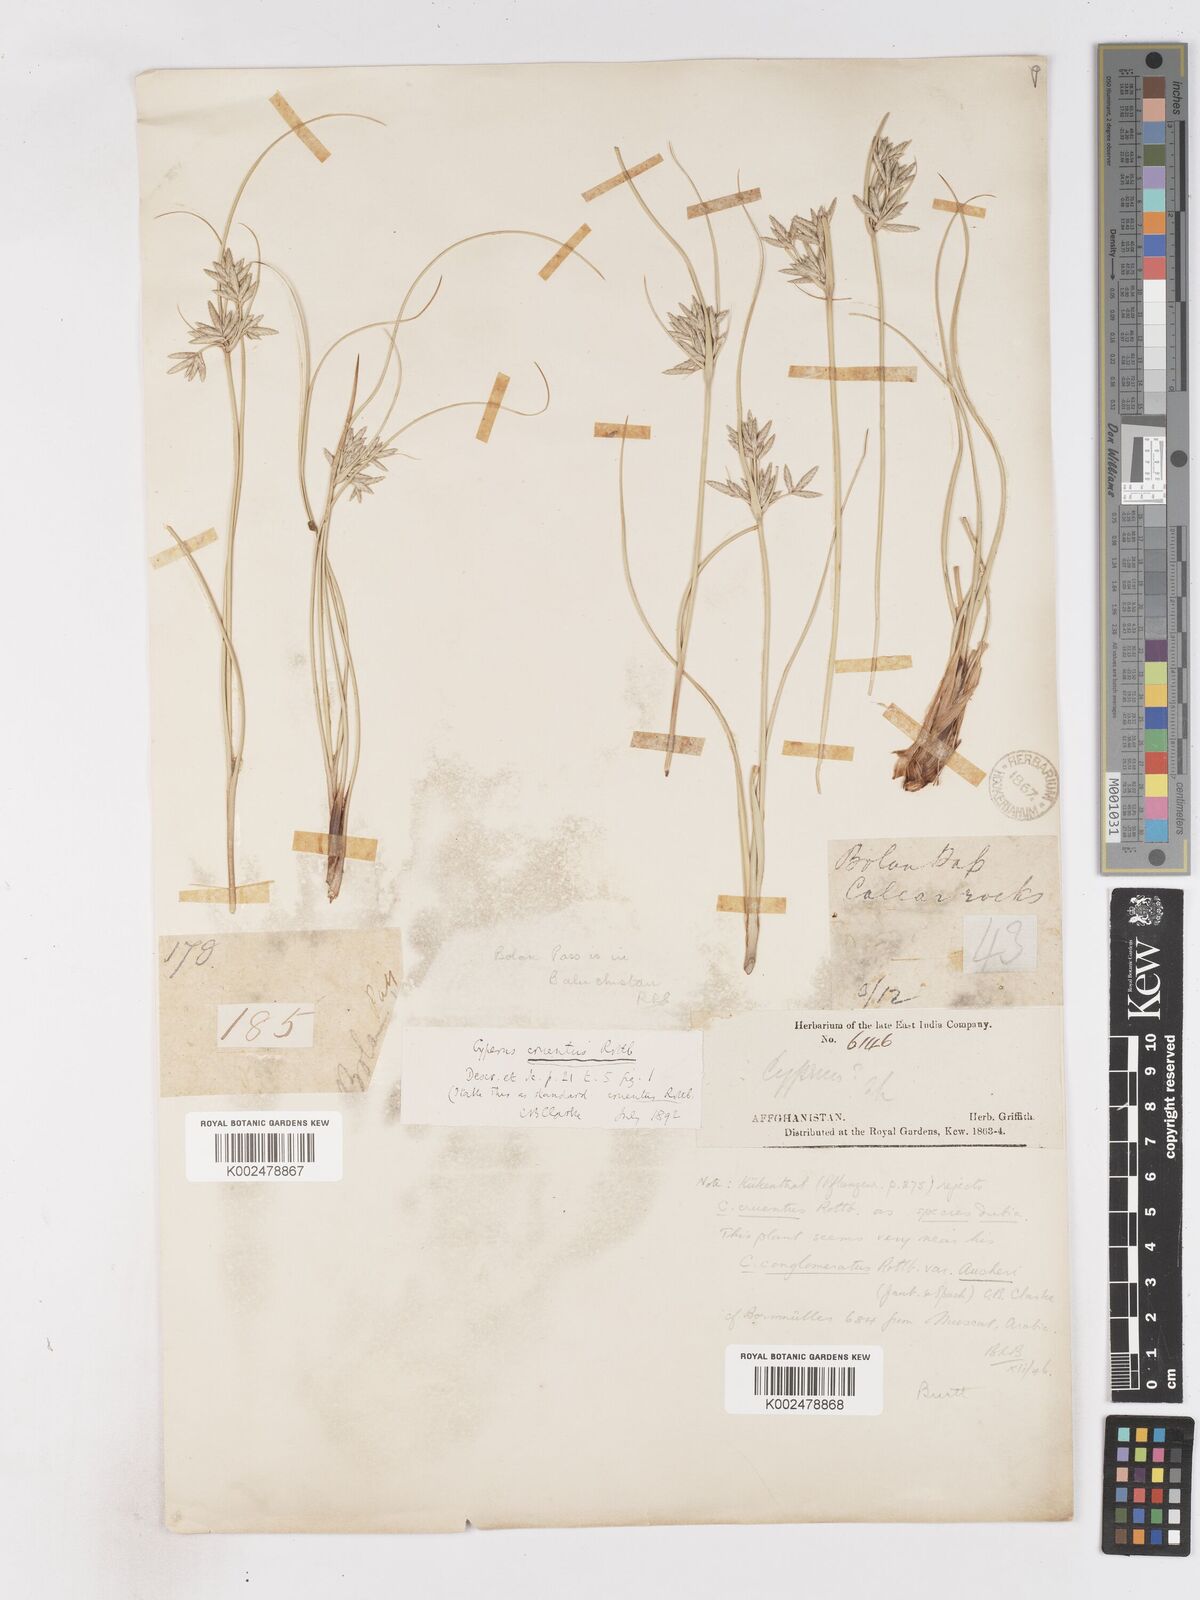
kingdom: Plantae
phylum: Tracheophyta
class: Liliopsida
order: Poales
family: Cyperaceae
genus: Cyperus
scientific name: Cyperus aucheri
